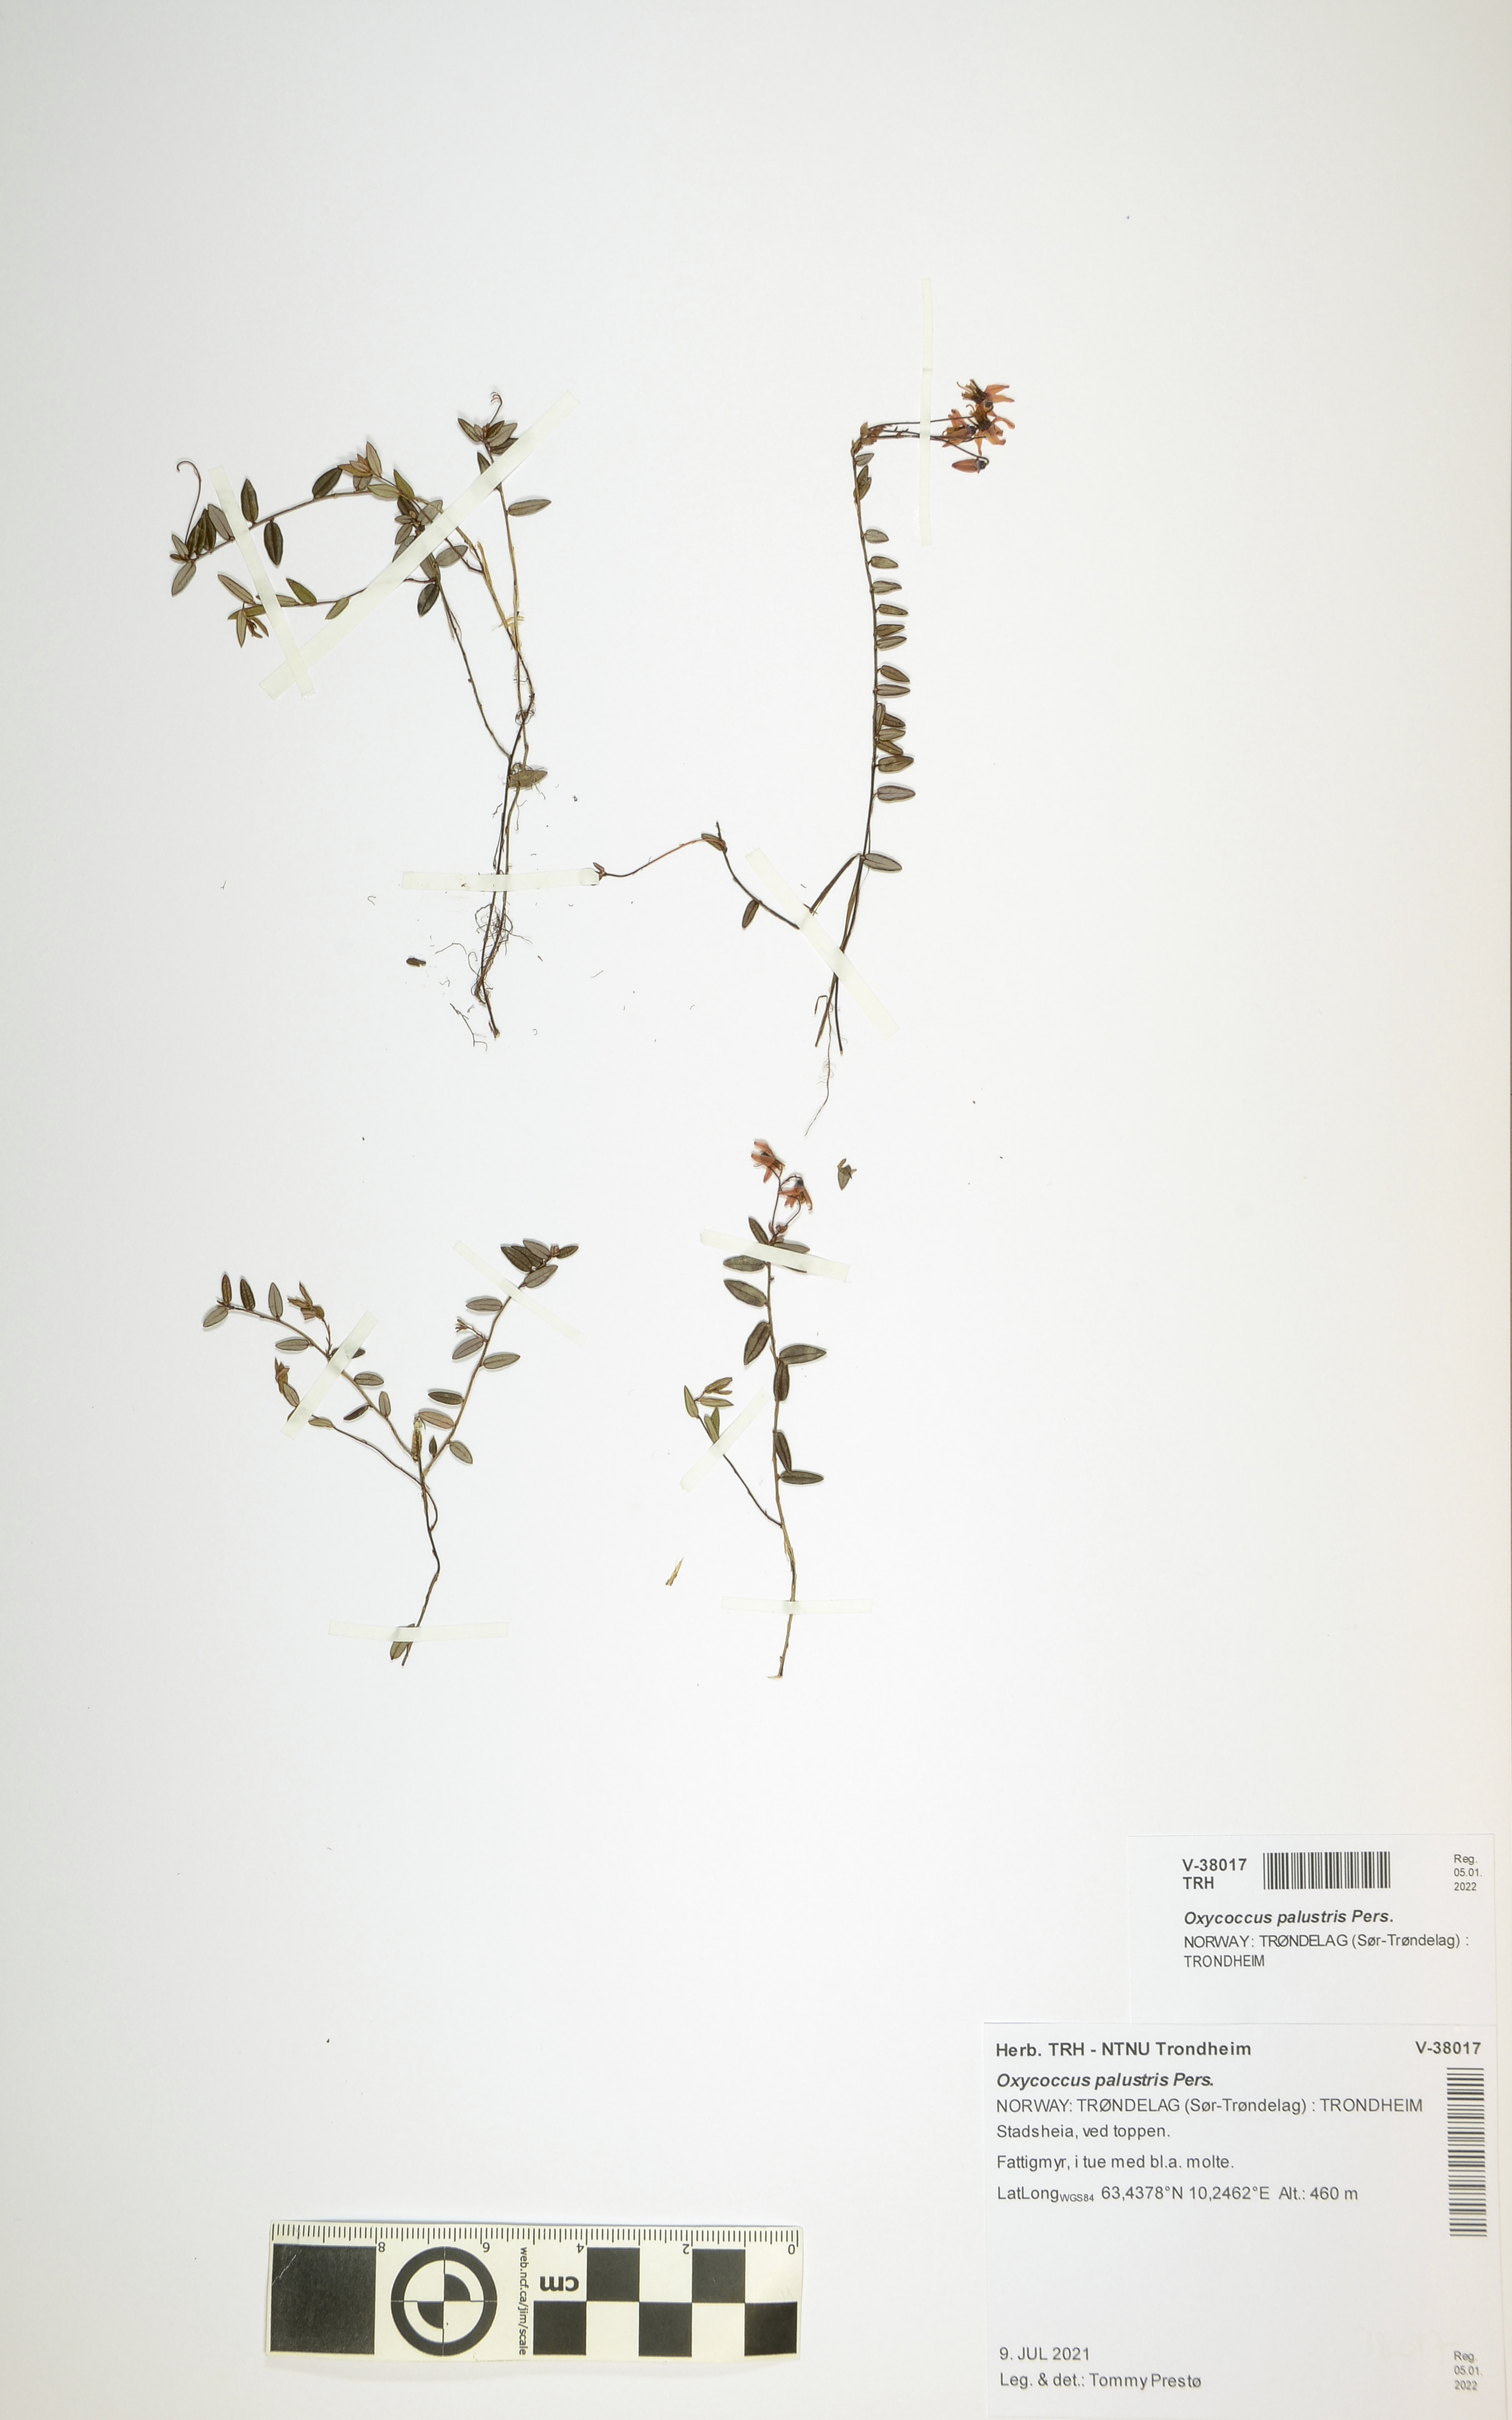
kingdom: Plantae
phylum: Tracheophyta
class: Magnoliopsida
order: Ericales
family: Ericaceae
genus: Vaccinium
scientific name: Vaccinium oxycoccos
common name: Cranberry
